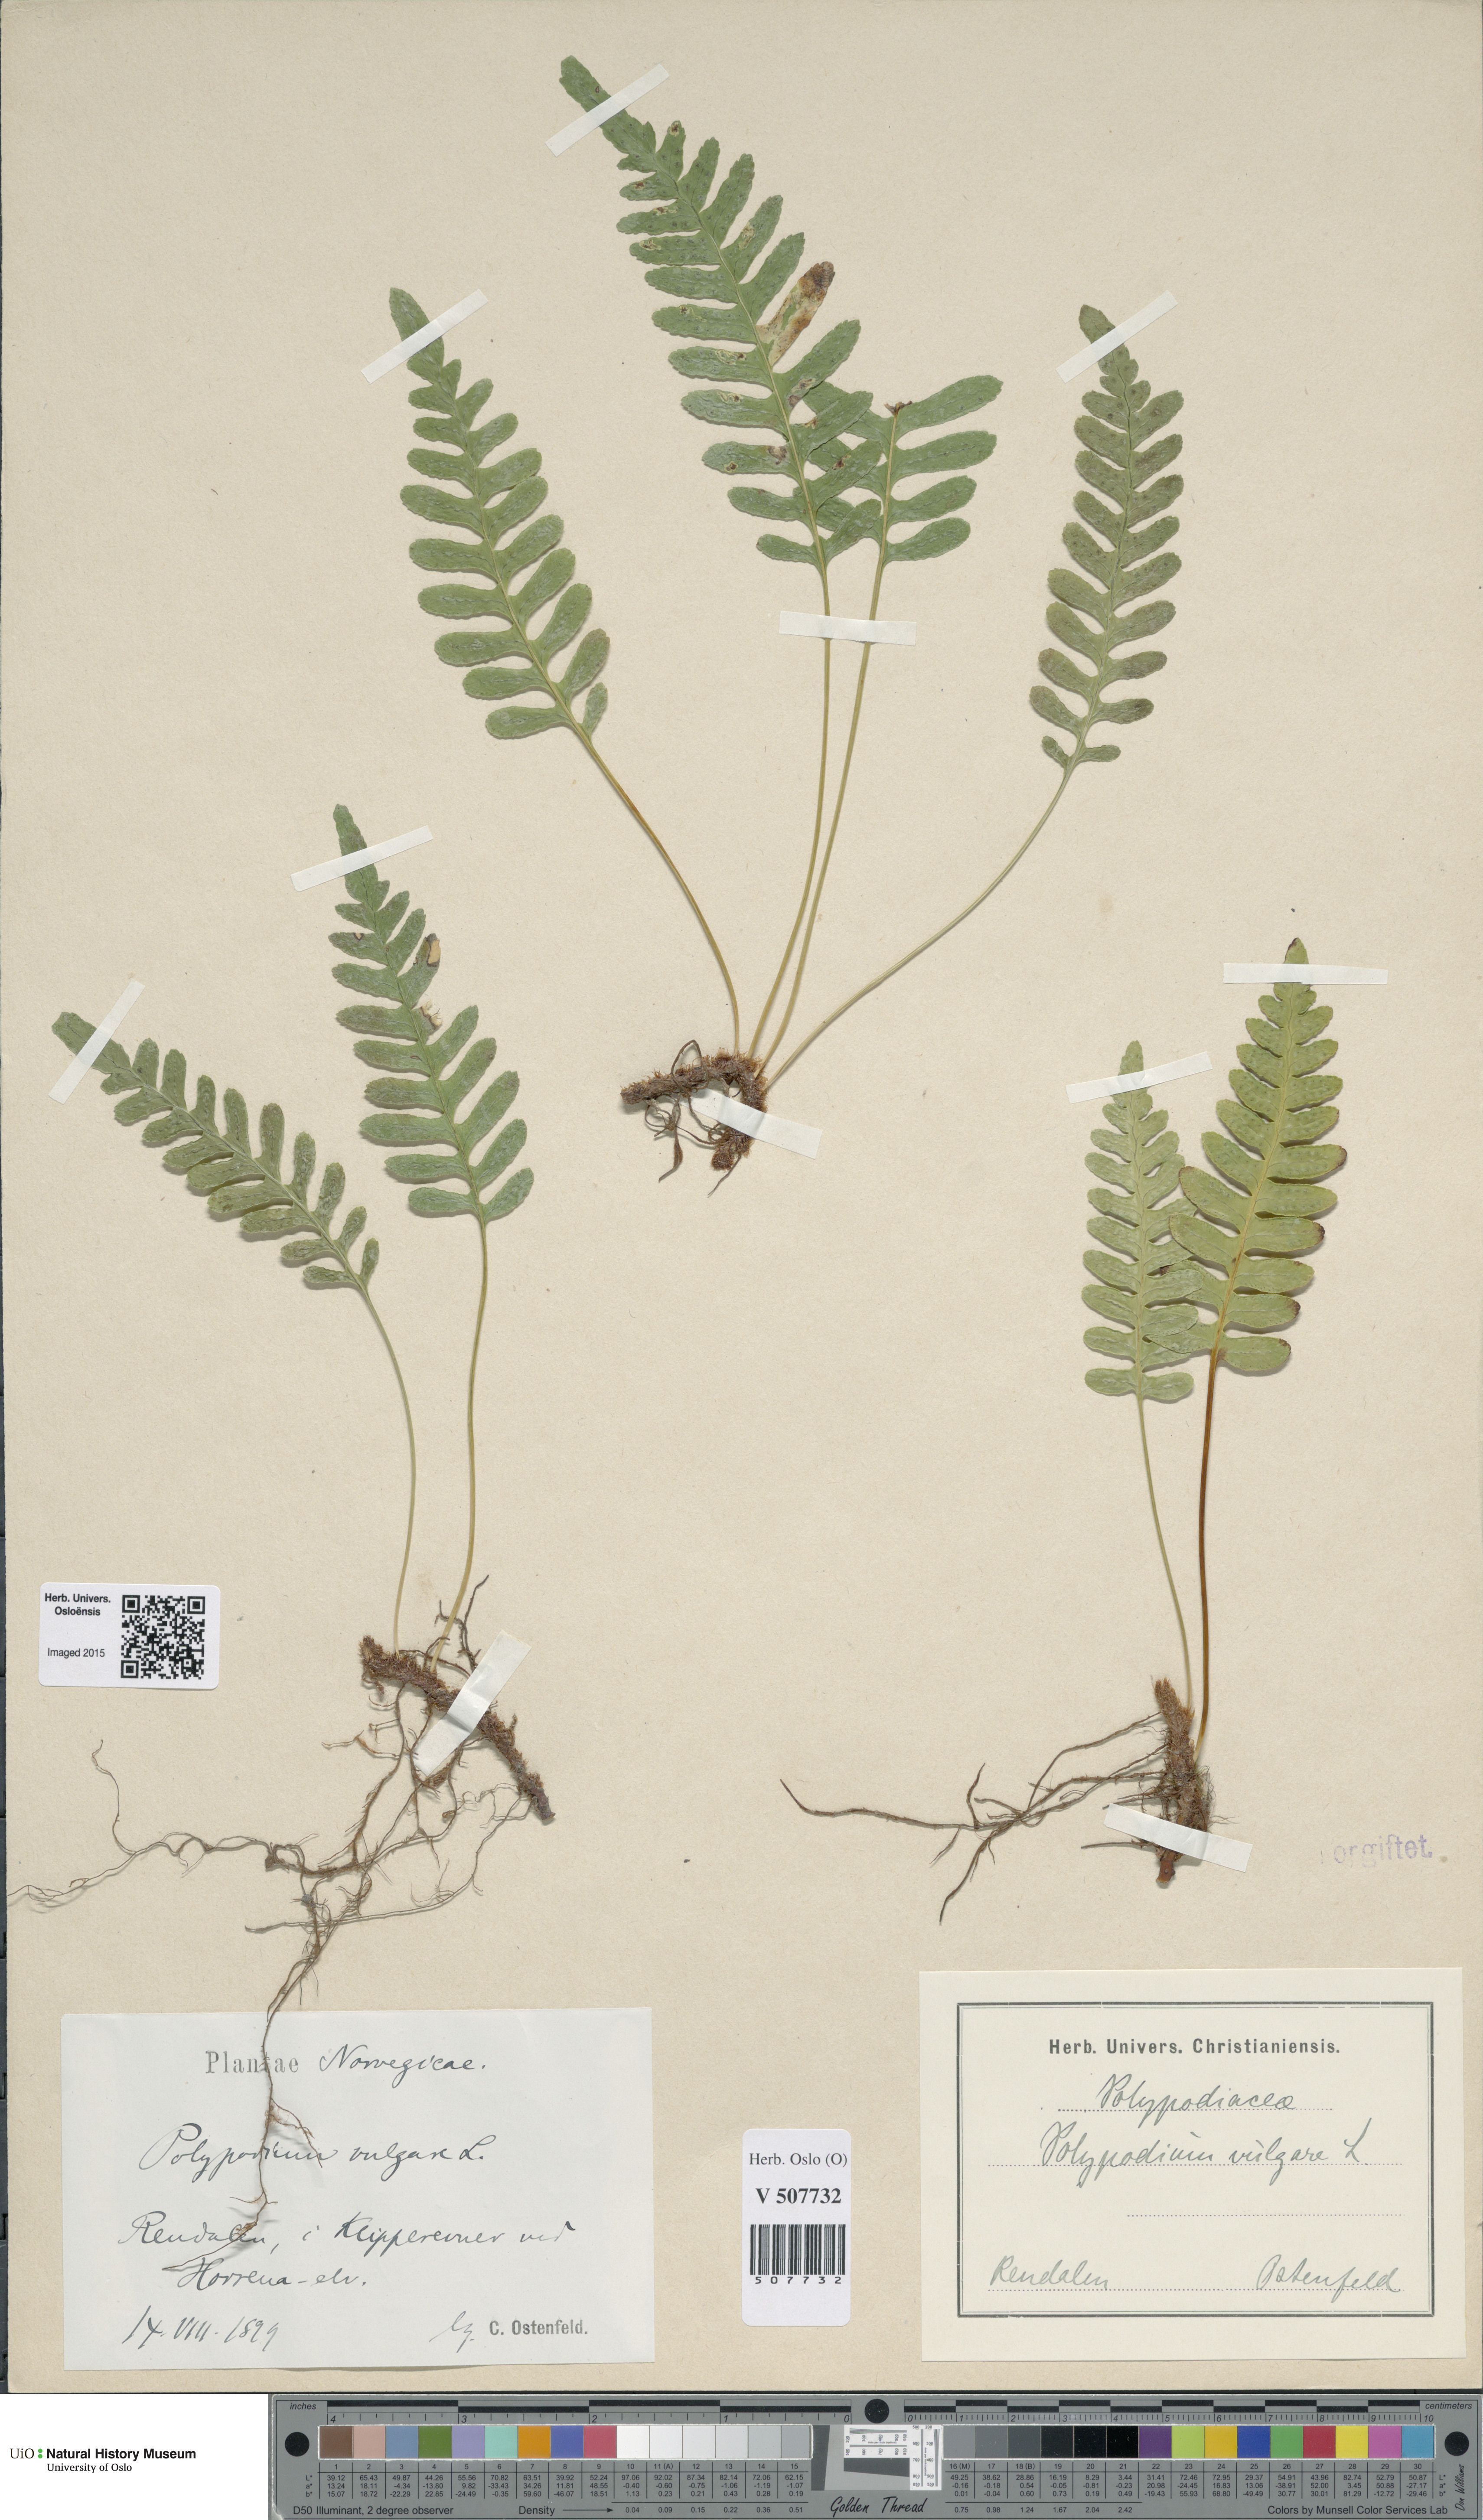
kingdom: Plantae
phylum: Tracheophyta
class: Polypodiopsida
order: Polypodiales
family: Polypodiaceae
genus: Polypodium
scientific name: Polypodium vulgare
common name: Common polypody
